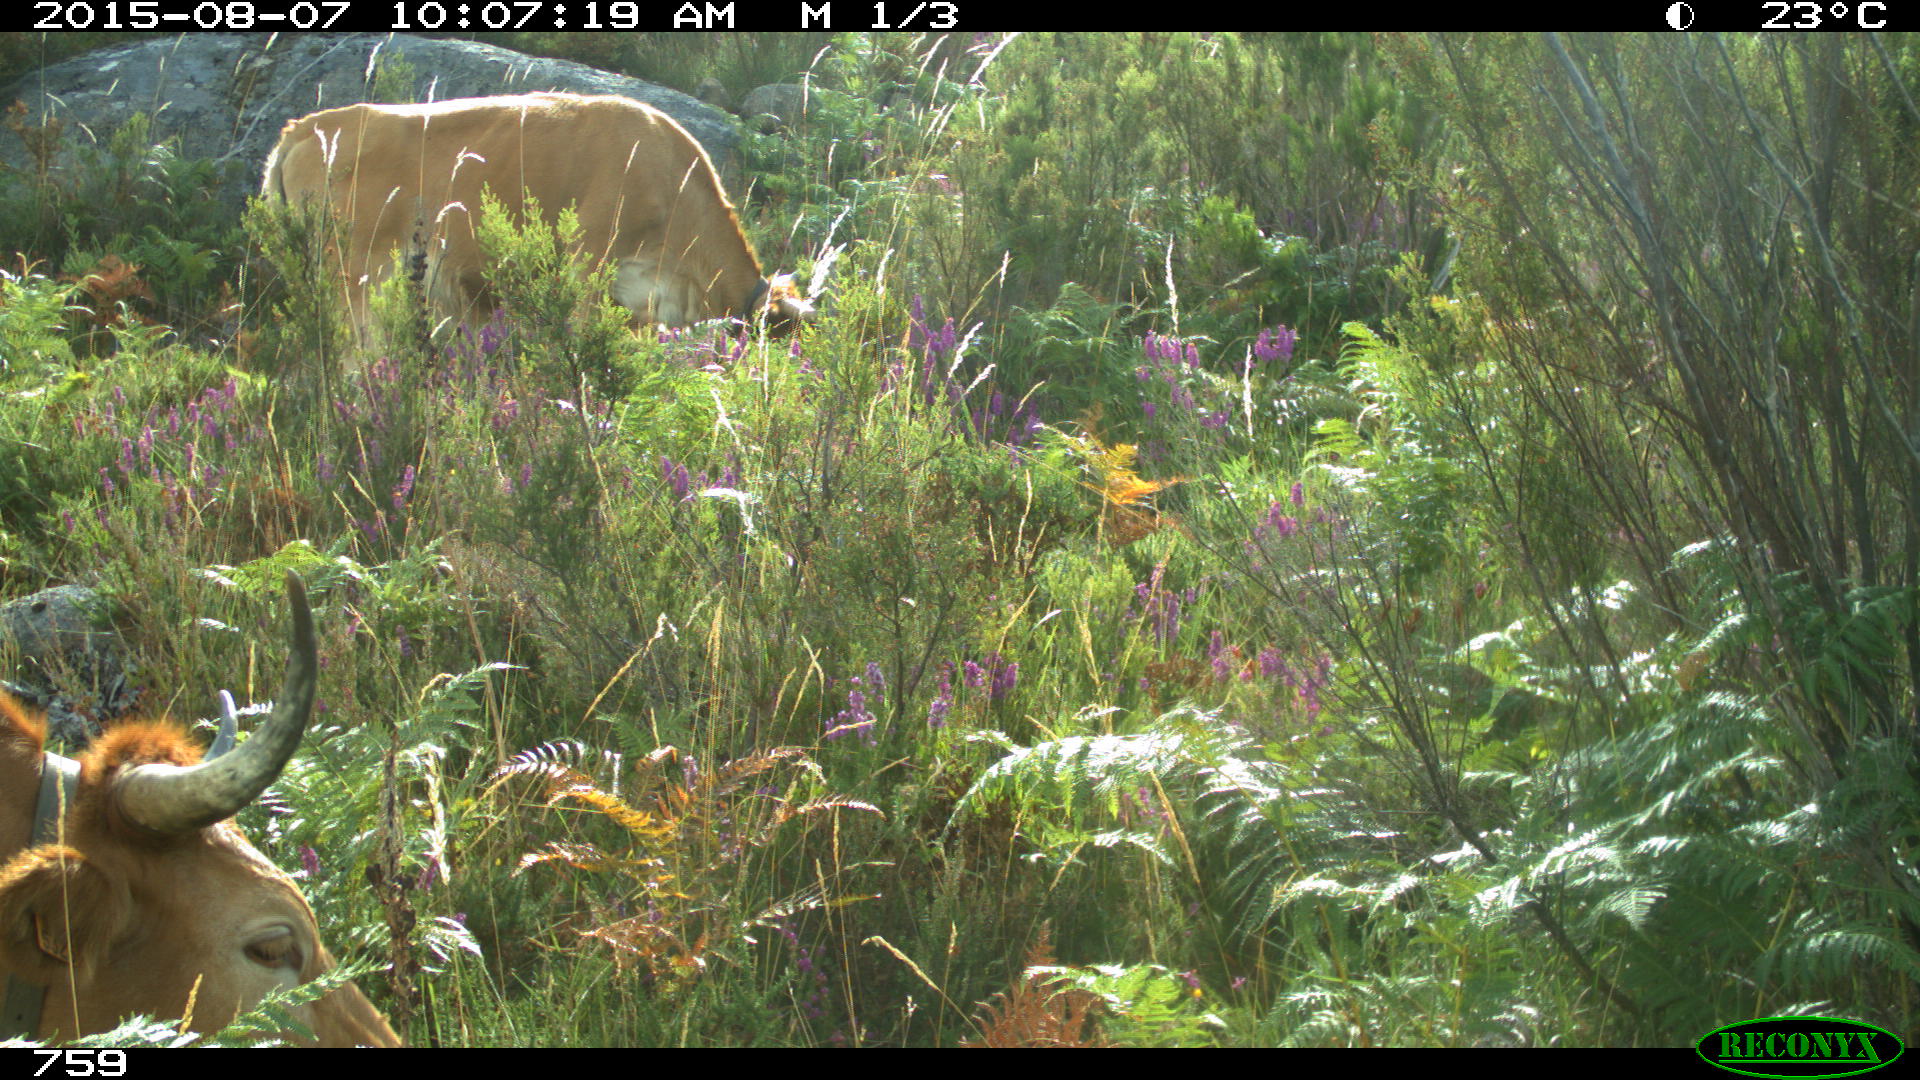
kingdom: Animalia
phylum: Chordata
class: Mammalia
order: Artiodactyla
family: Bovidae
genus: Bos
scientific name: Bos taurus
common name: Domesticated cattle
